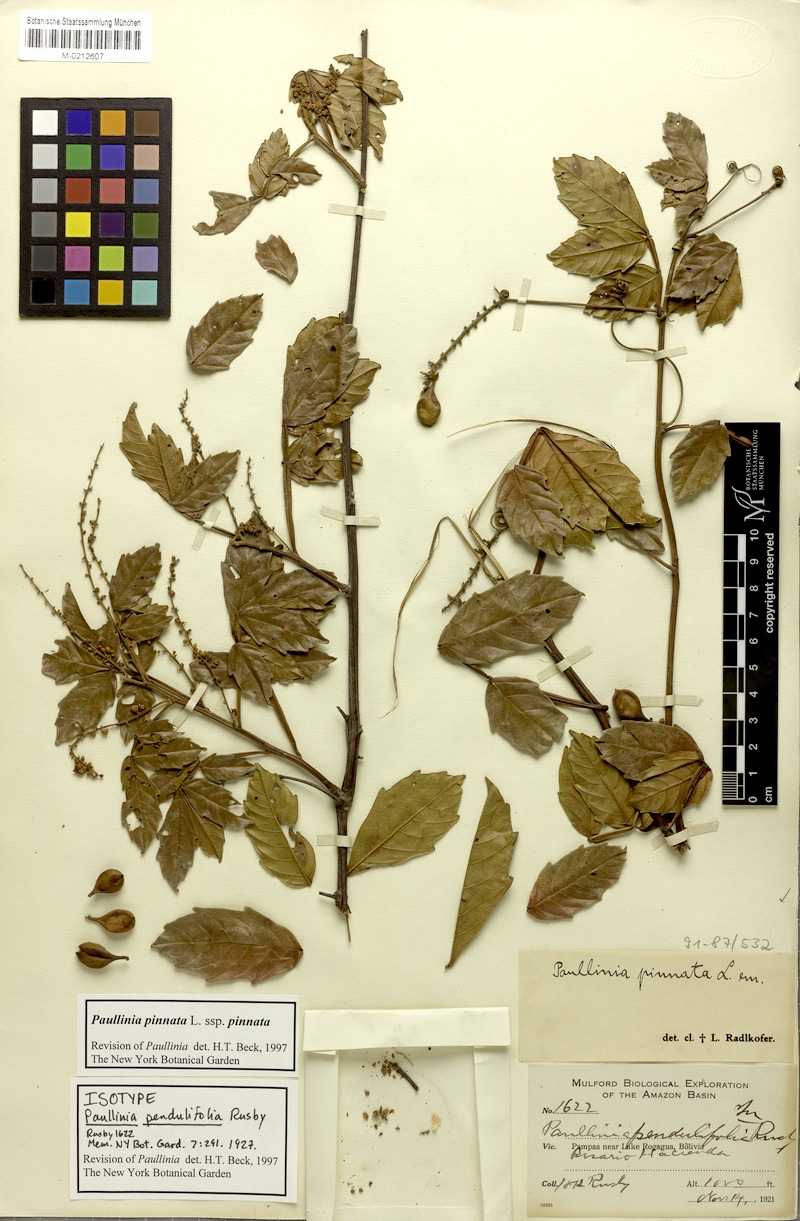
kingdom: Plantae
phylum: Tracheophyta
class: Magnoliopsida
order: Sapindales
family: Sapindaceae
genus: Paullinia
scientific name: Paullinia pinnata
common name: Barbasco
